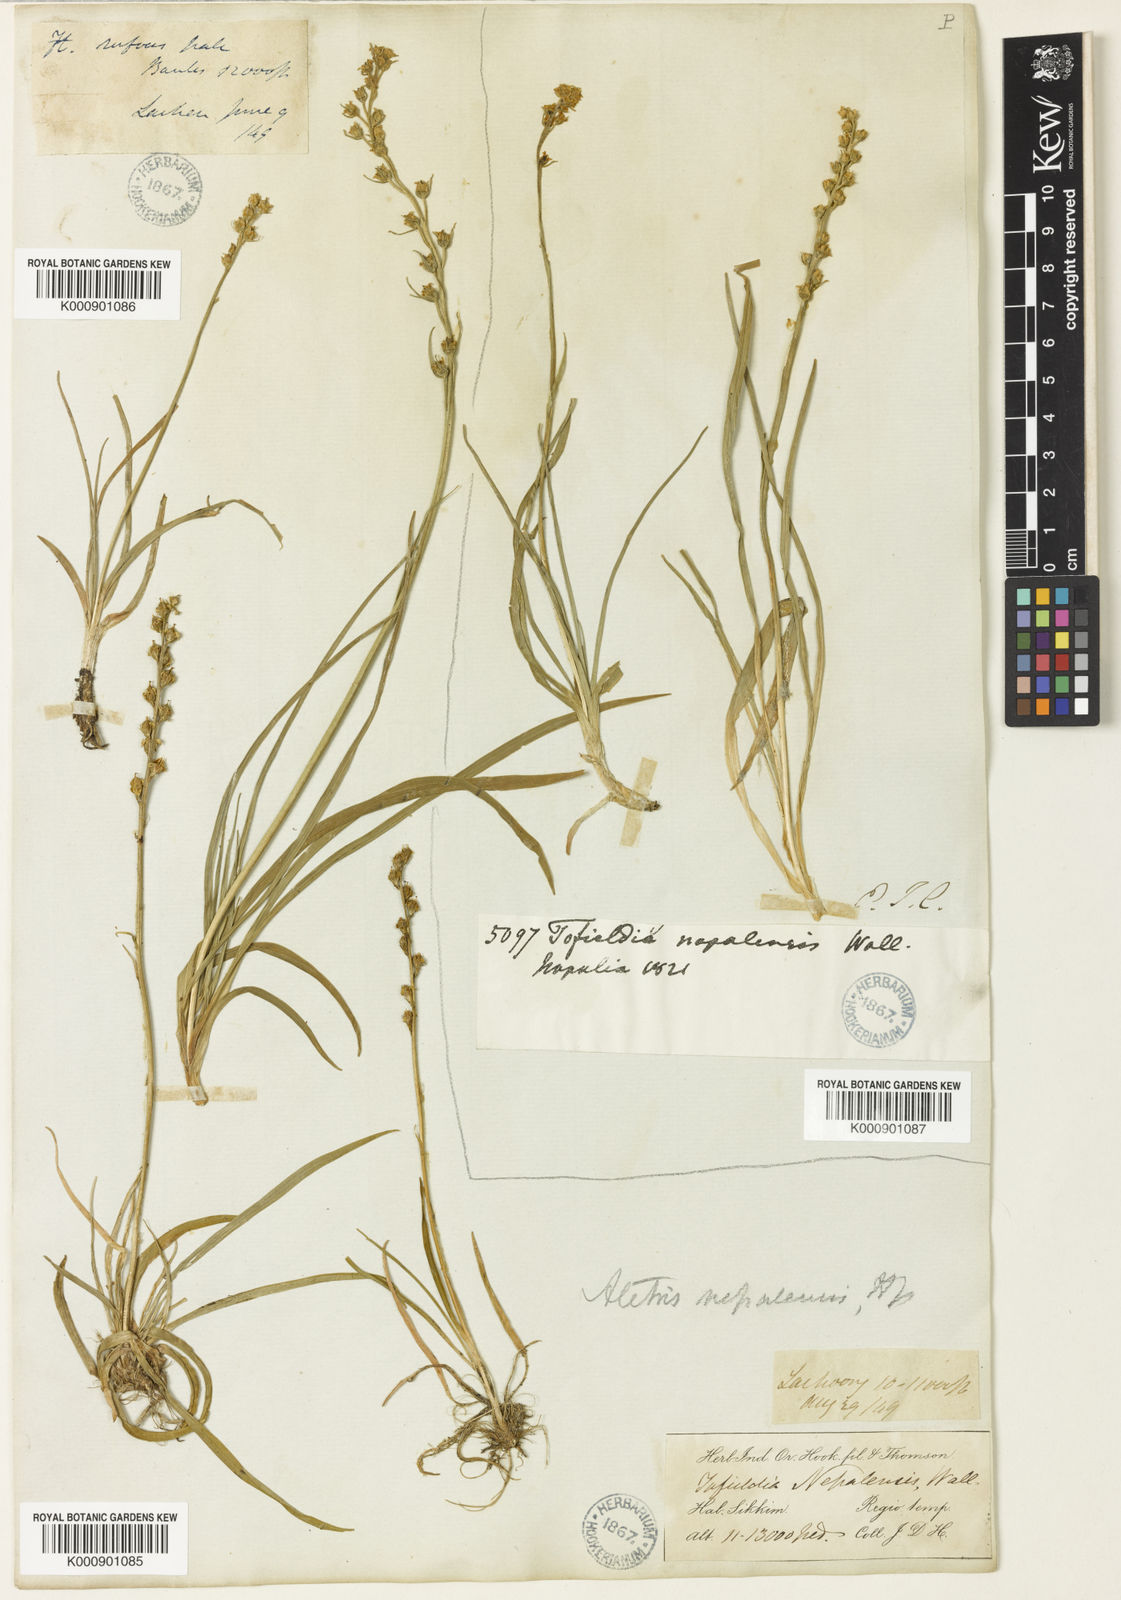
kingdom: Plantae
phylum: Tracheophyta
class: Liliopsida
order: Dioscoreales
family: Nartheciaceae
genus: Aletris
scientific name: Aletris pauciflora
